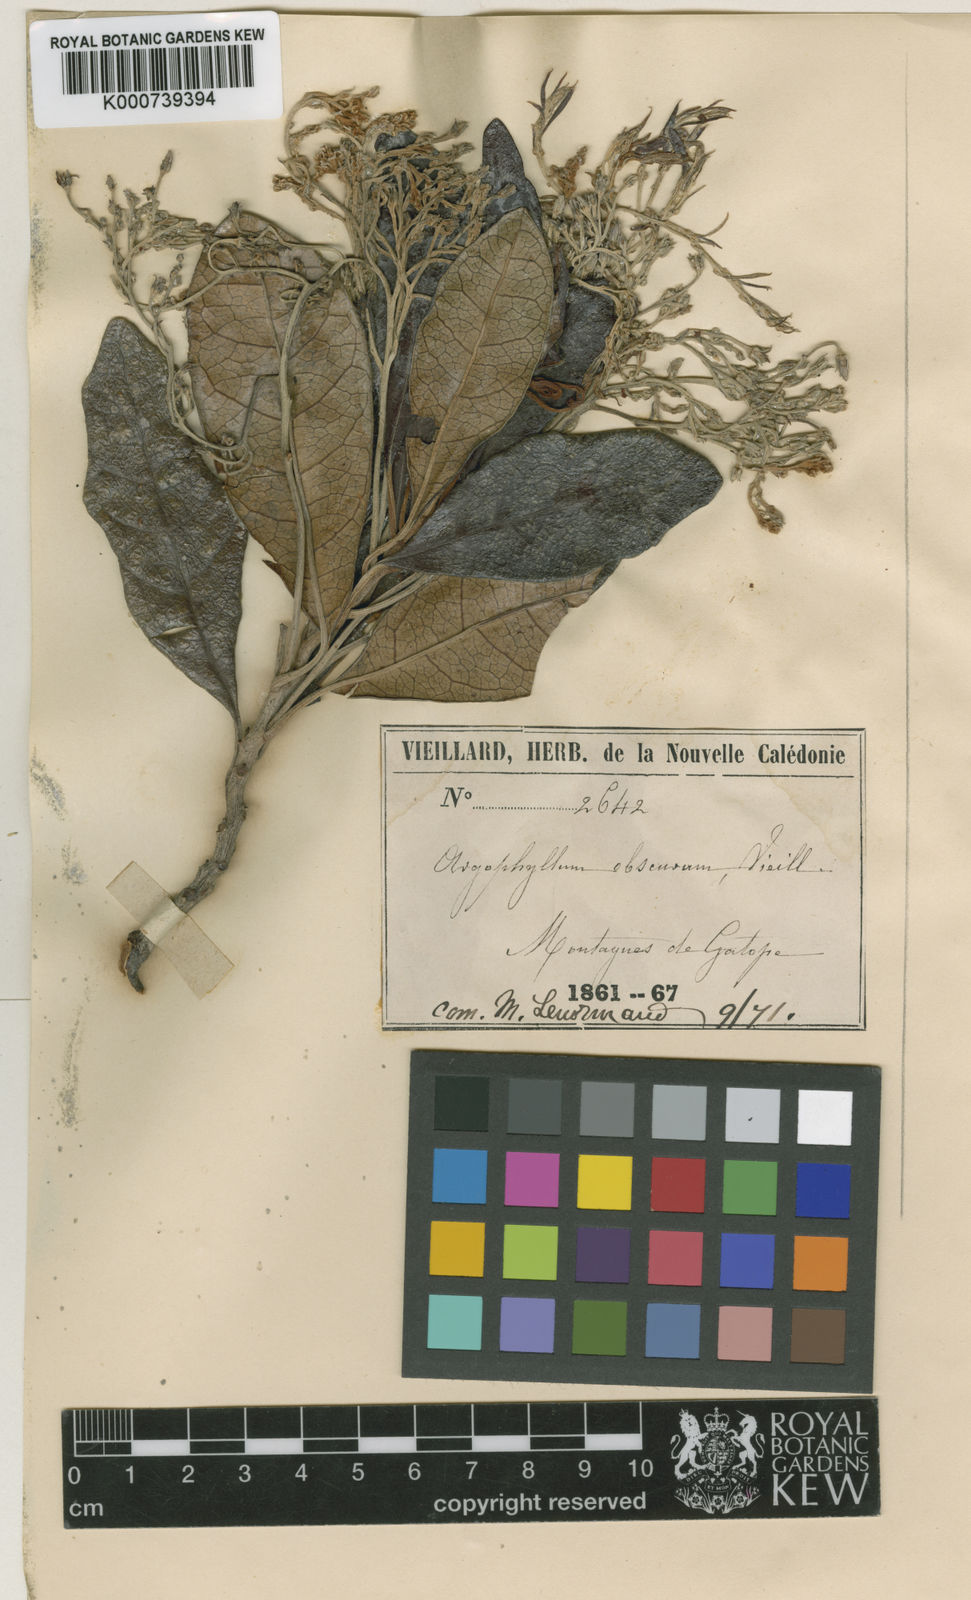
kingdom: Plantae
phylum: Tracheophyta
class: Magnoliopsida
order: Asterales
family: Argophyllaceae
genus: Argophyllum
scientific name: Argophyllum
